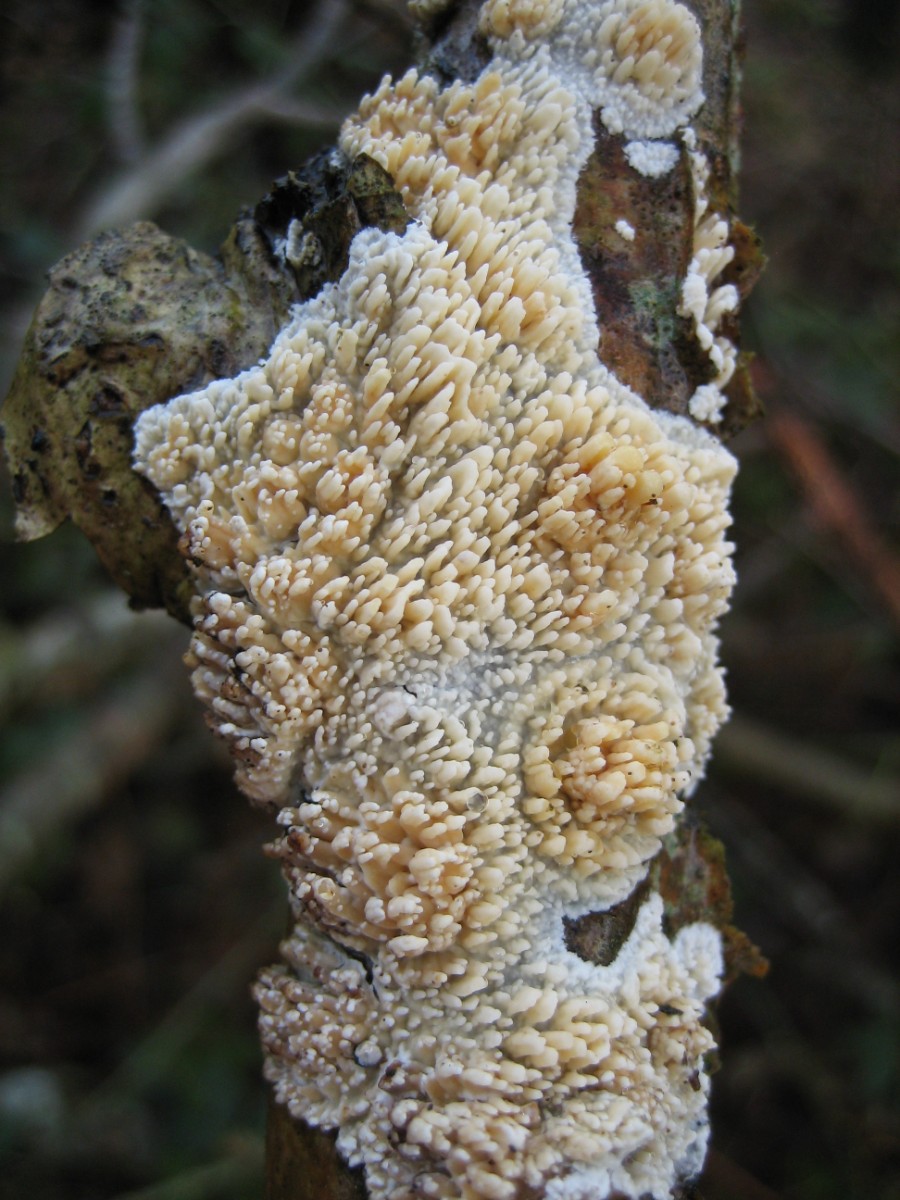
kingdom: Fungi
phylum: Basidiomycota
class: Agaricomycetes
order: Hymenochaetales
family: Schizoporaceae
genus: Xylodon
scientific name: Xylodon radula
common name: grovtandet kalkskind
